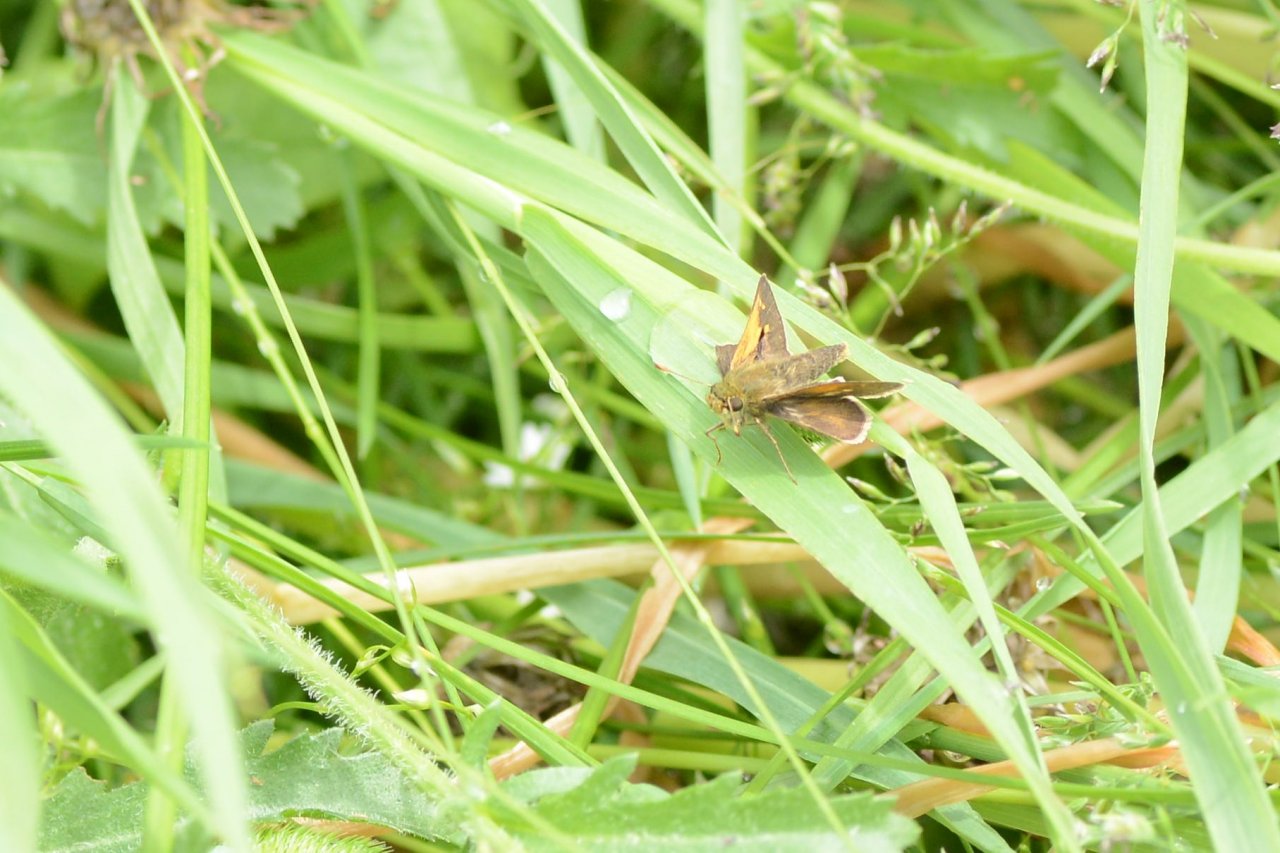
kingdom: Animalia
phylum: Arthropoda
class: Insecta
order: Lepidoptera
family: Hesperiidae
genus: Polites
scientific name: Polites themistocles
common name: Tawny-edged Skipper
